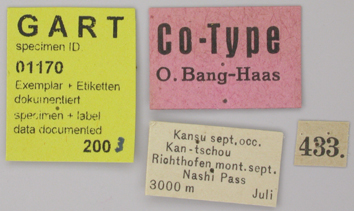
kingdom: Animalia
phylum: Arthropoda
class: Insecta
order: Lepidoptera
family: Papilionidae
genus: Parnassius
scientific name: Parnassius actius
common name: Scarce red apollo
